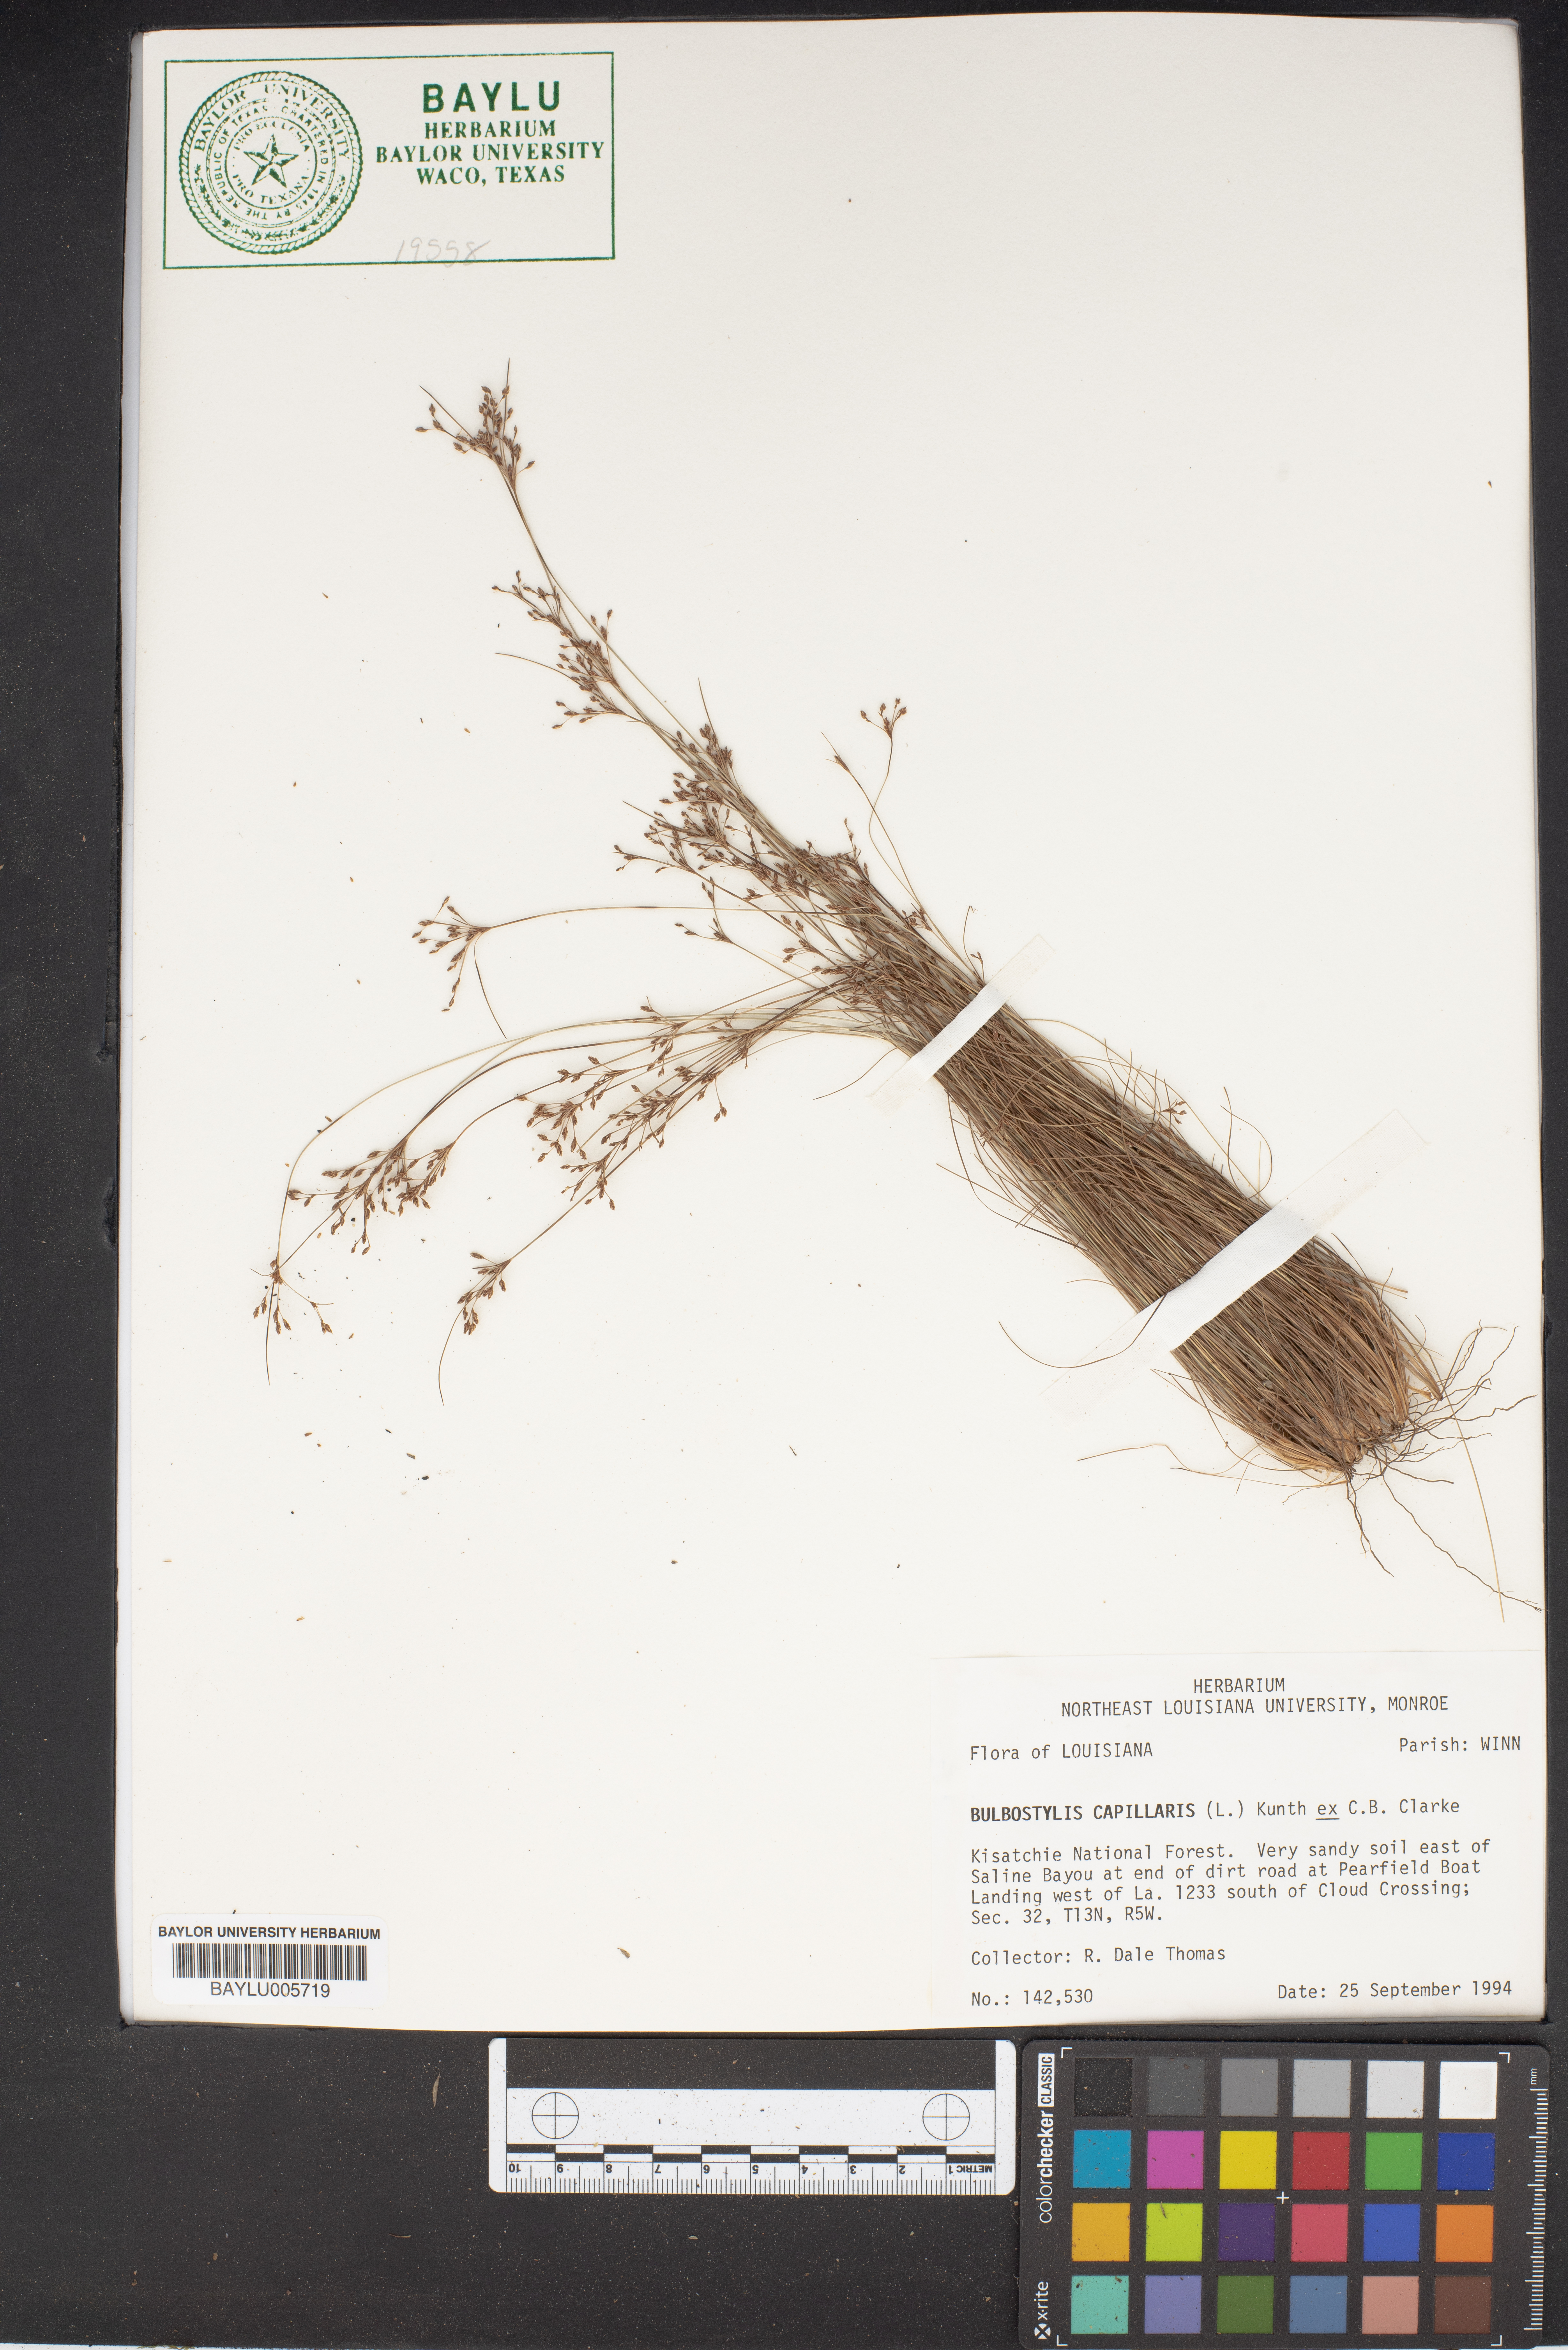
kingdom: Plantae
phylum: Tracheophyta
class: Liliopsida
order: Poales
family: Cyperaceae
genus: Bulbostylis
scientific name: Bulbostylis capillaris
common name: Densetuft hairsedge
